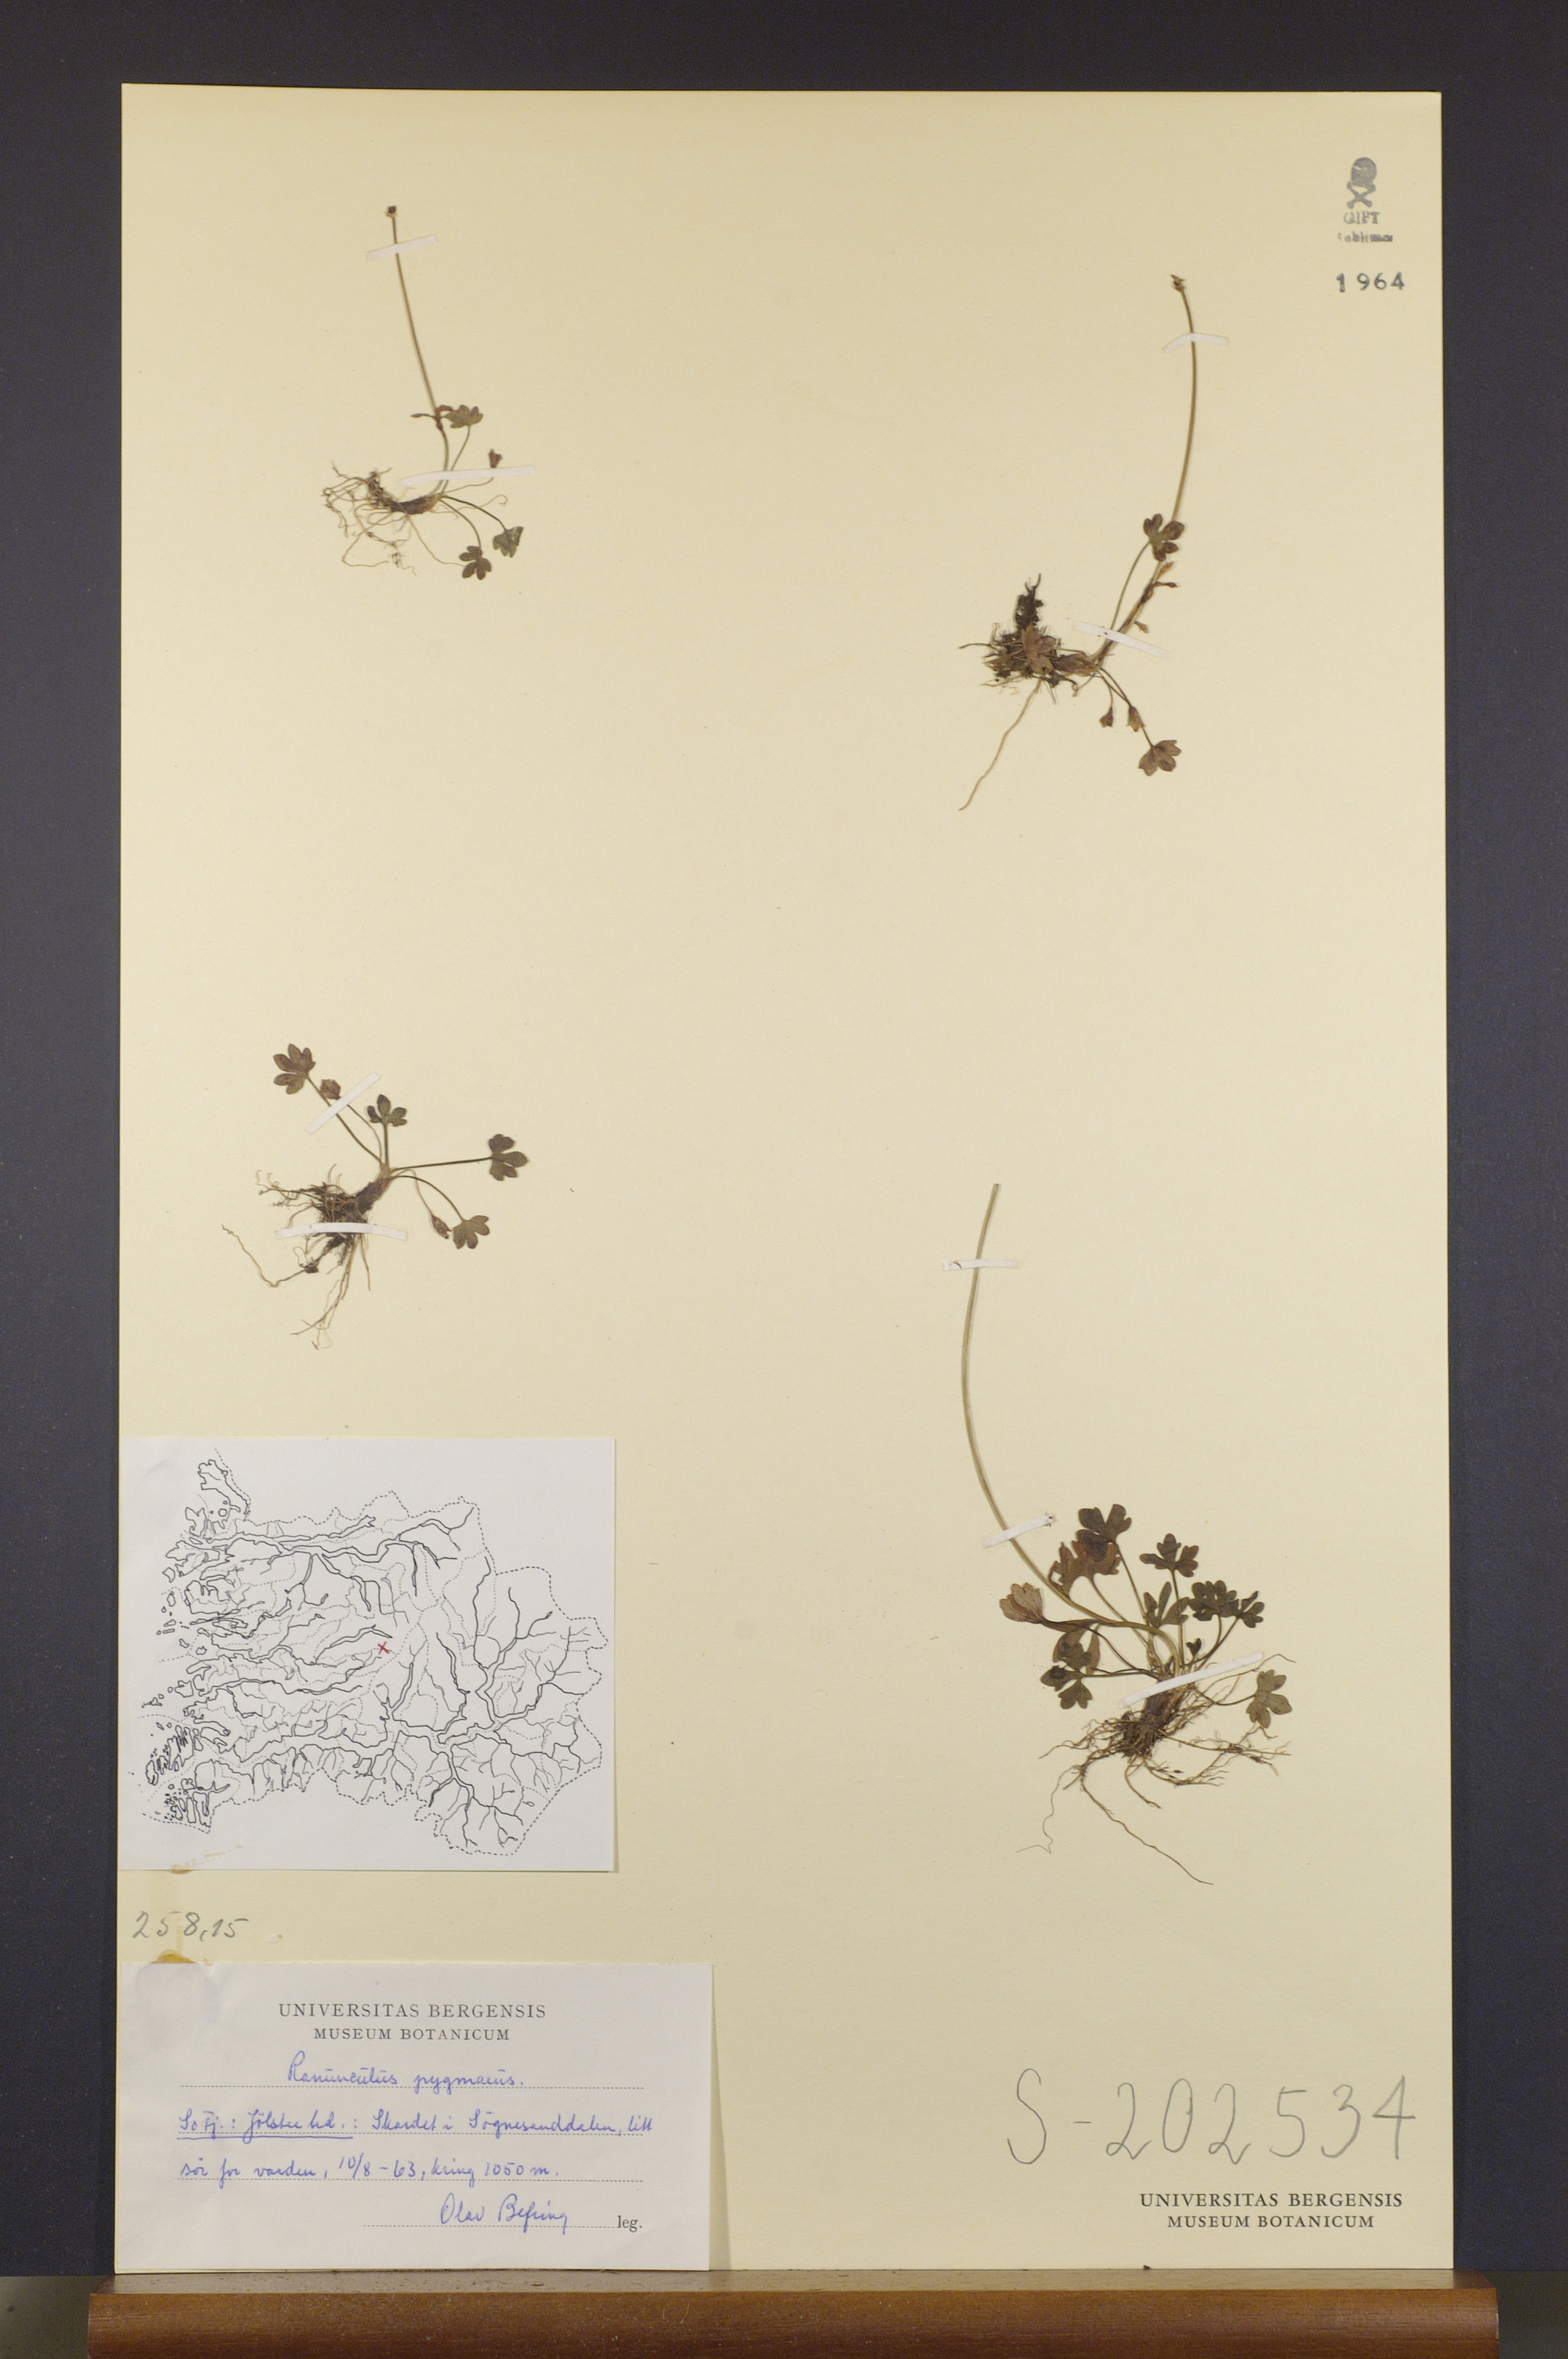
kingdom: Plantae
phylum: Tracheophyta
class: Magnoliopsida
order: Ranunculales
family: Ranunculaceae
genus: Ranunculus
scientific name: Ranunculus pygmaeus
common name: Dwarf buttercup
